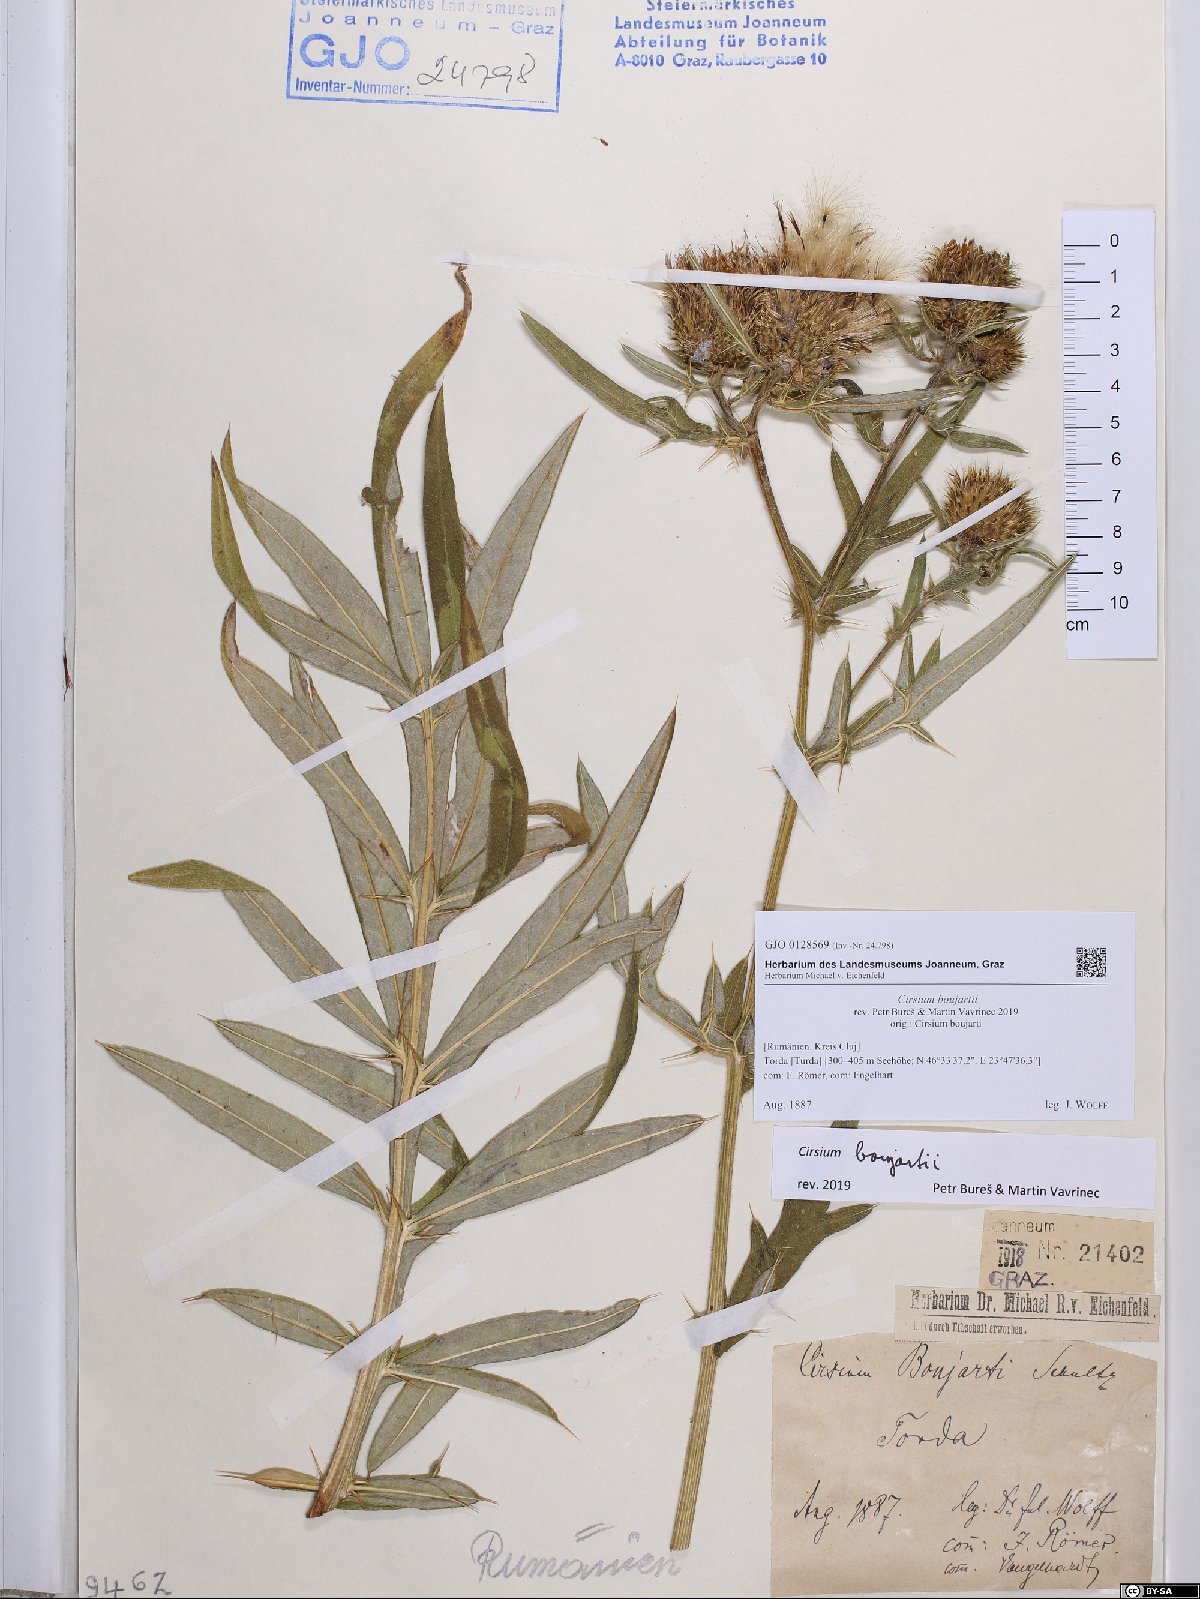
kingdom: Plantae
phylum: Tracheophyta
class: Magnoliopsida
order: Asterales
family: Asteraceae
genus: Lophiolepis
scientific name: Lophiolepis boujartii
